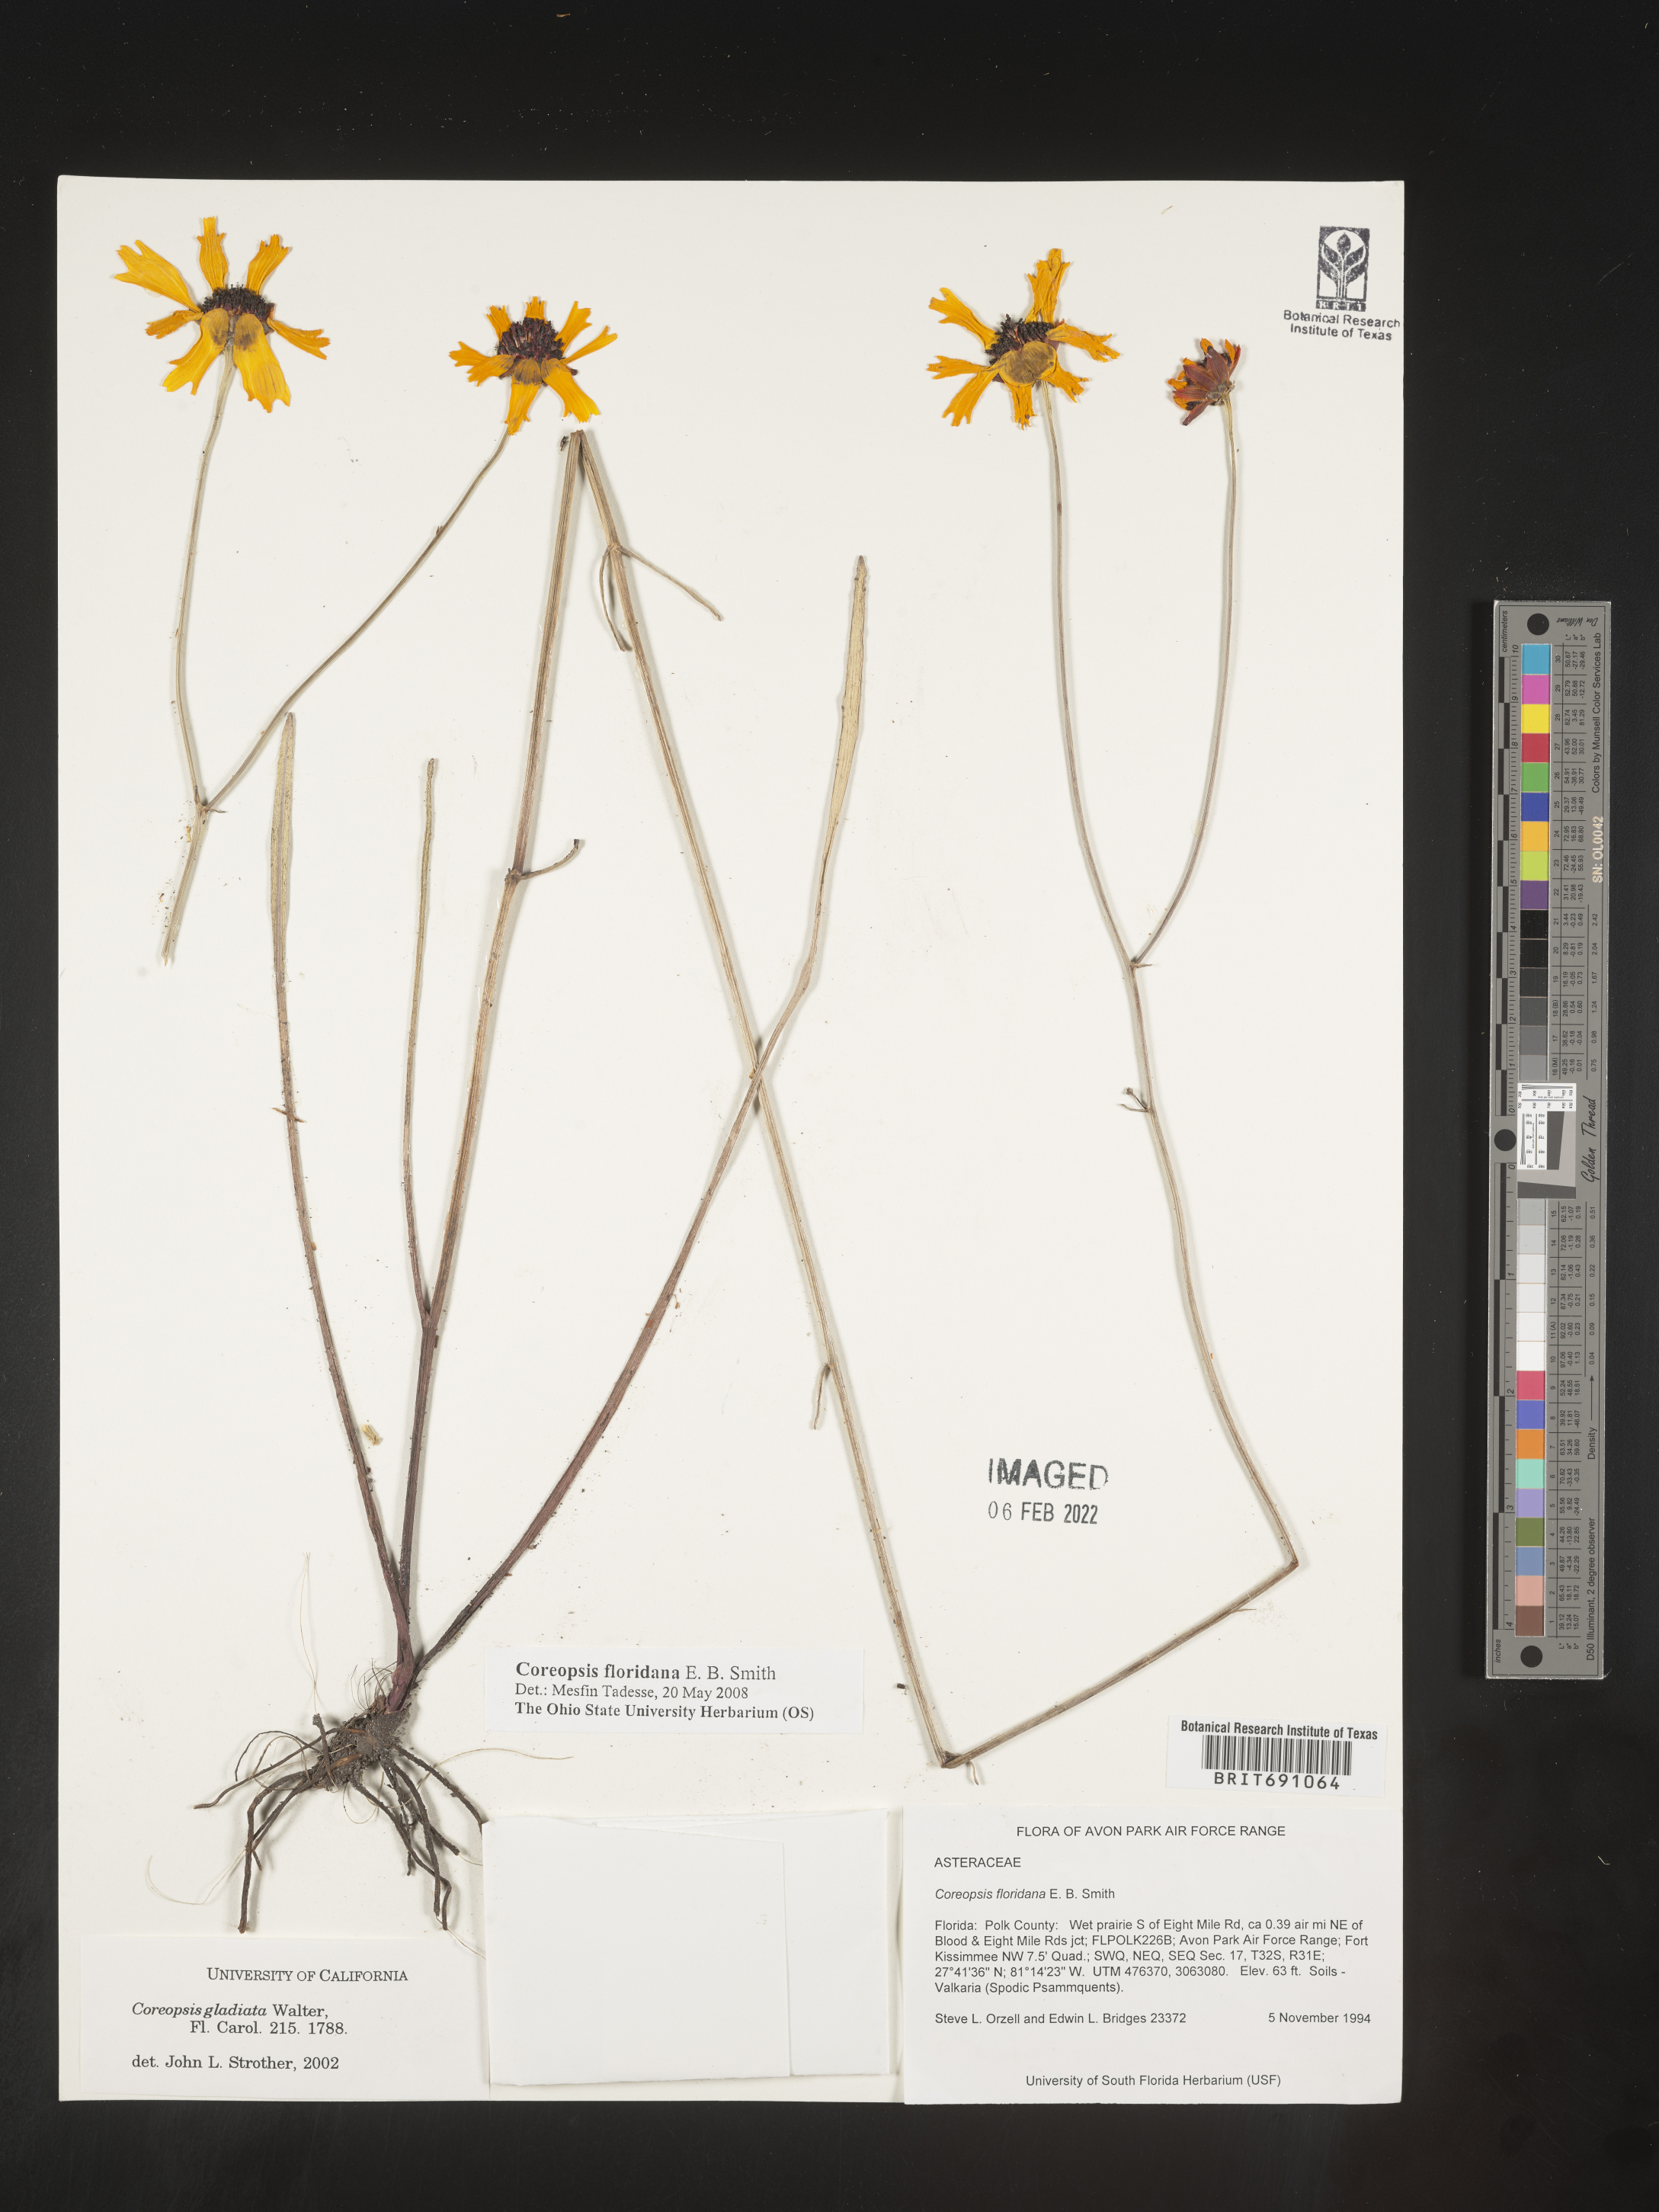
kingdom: Plantae
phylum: Tracheophyta
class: Magnoliopsida
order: Asterales
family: Asteraceae
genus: Coreopsis
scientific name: Coreopsis
